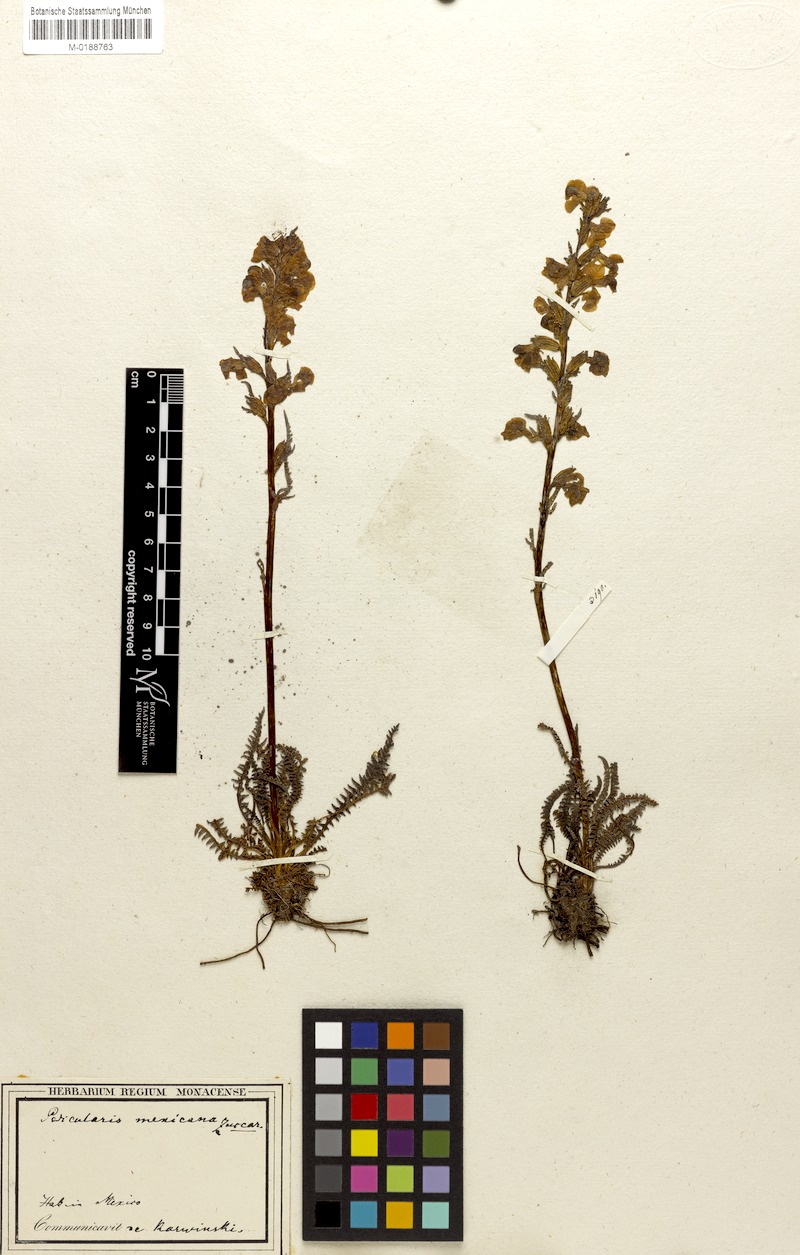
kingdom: Plantae
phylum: Tracheophyta
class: Magnoliopsida
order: Lamiales
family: Orobanchaceae
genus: Pedicularis
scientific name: Pedicularis orizabae
